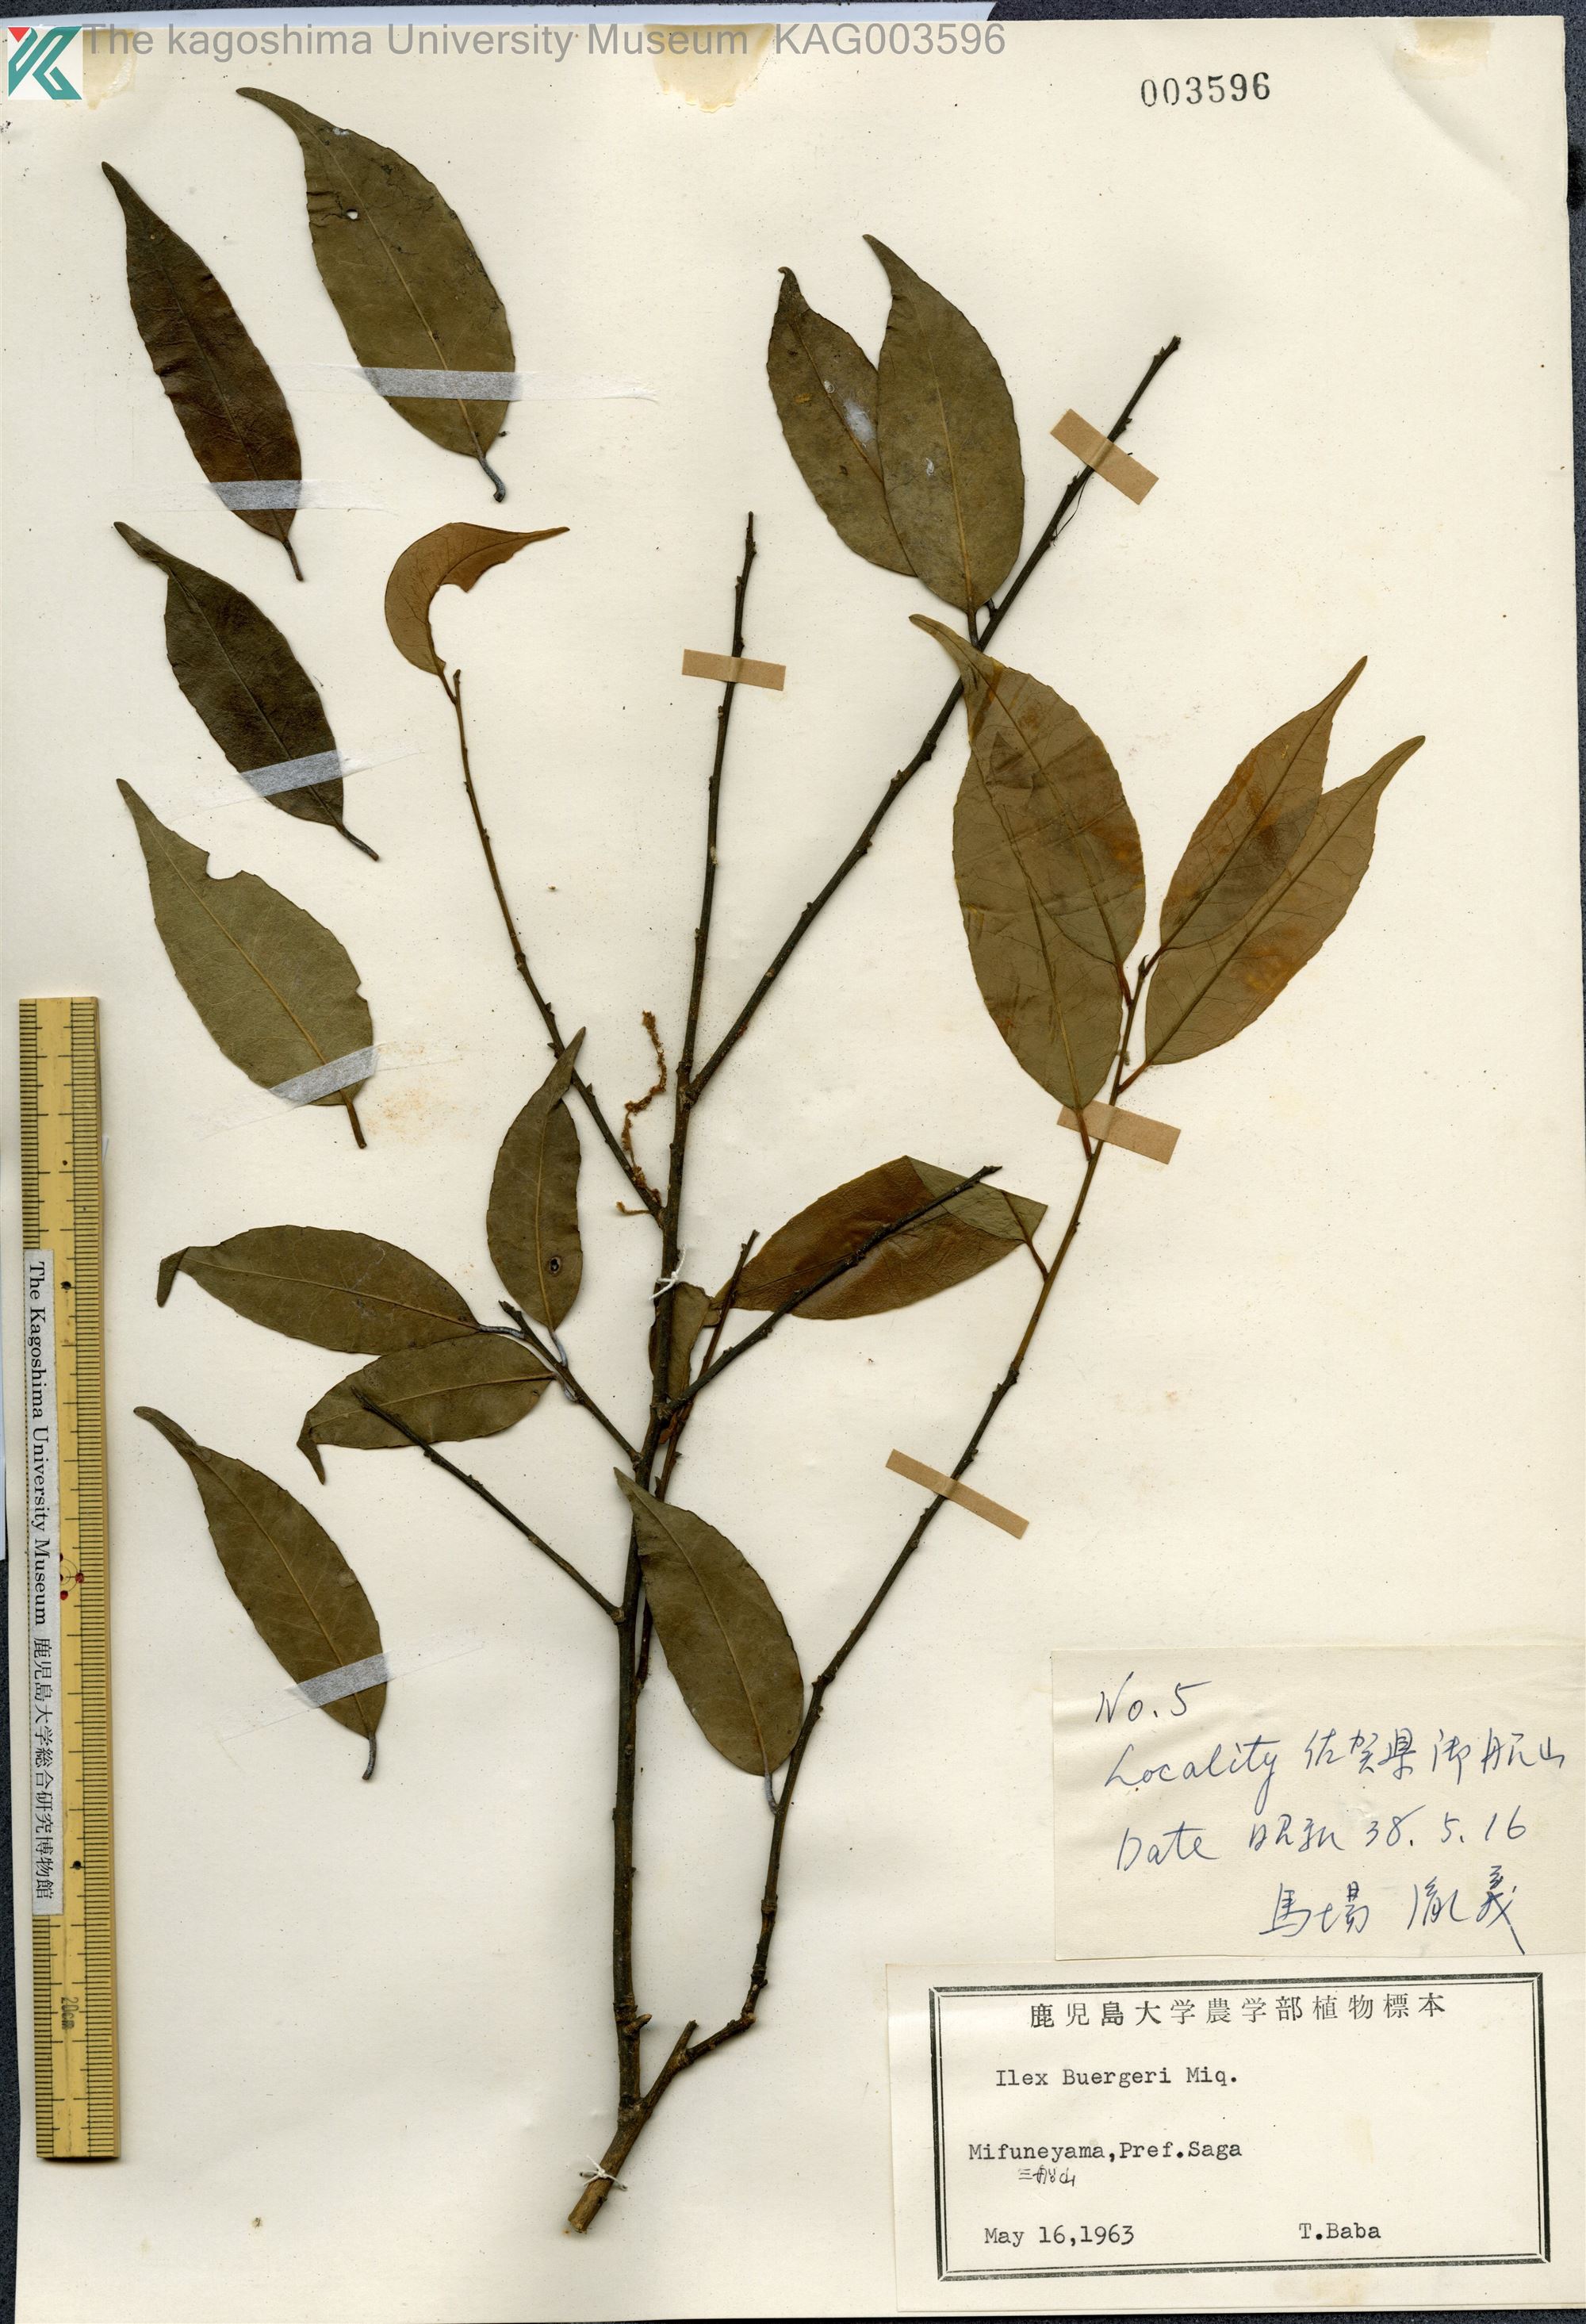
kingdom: Plantae
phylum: Tracheophyta
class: Magnoliopsida
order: Aquifoliales
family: Aquifoliaceae
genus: Ilex
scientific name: Ilex buergeri
